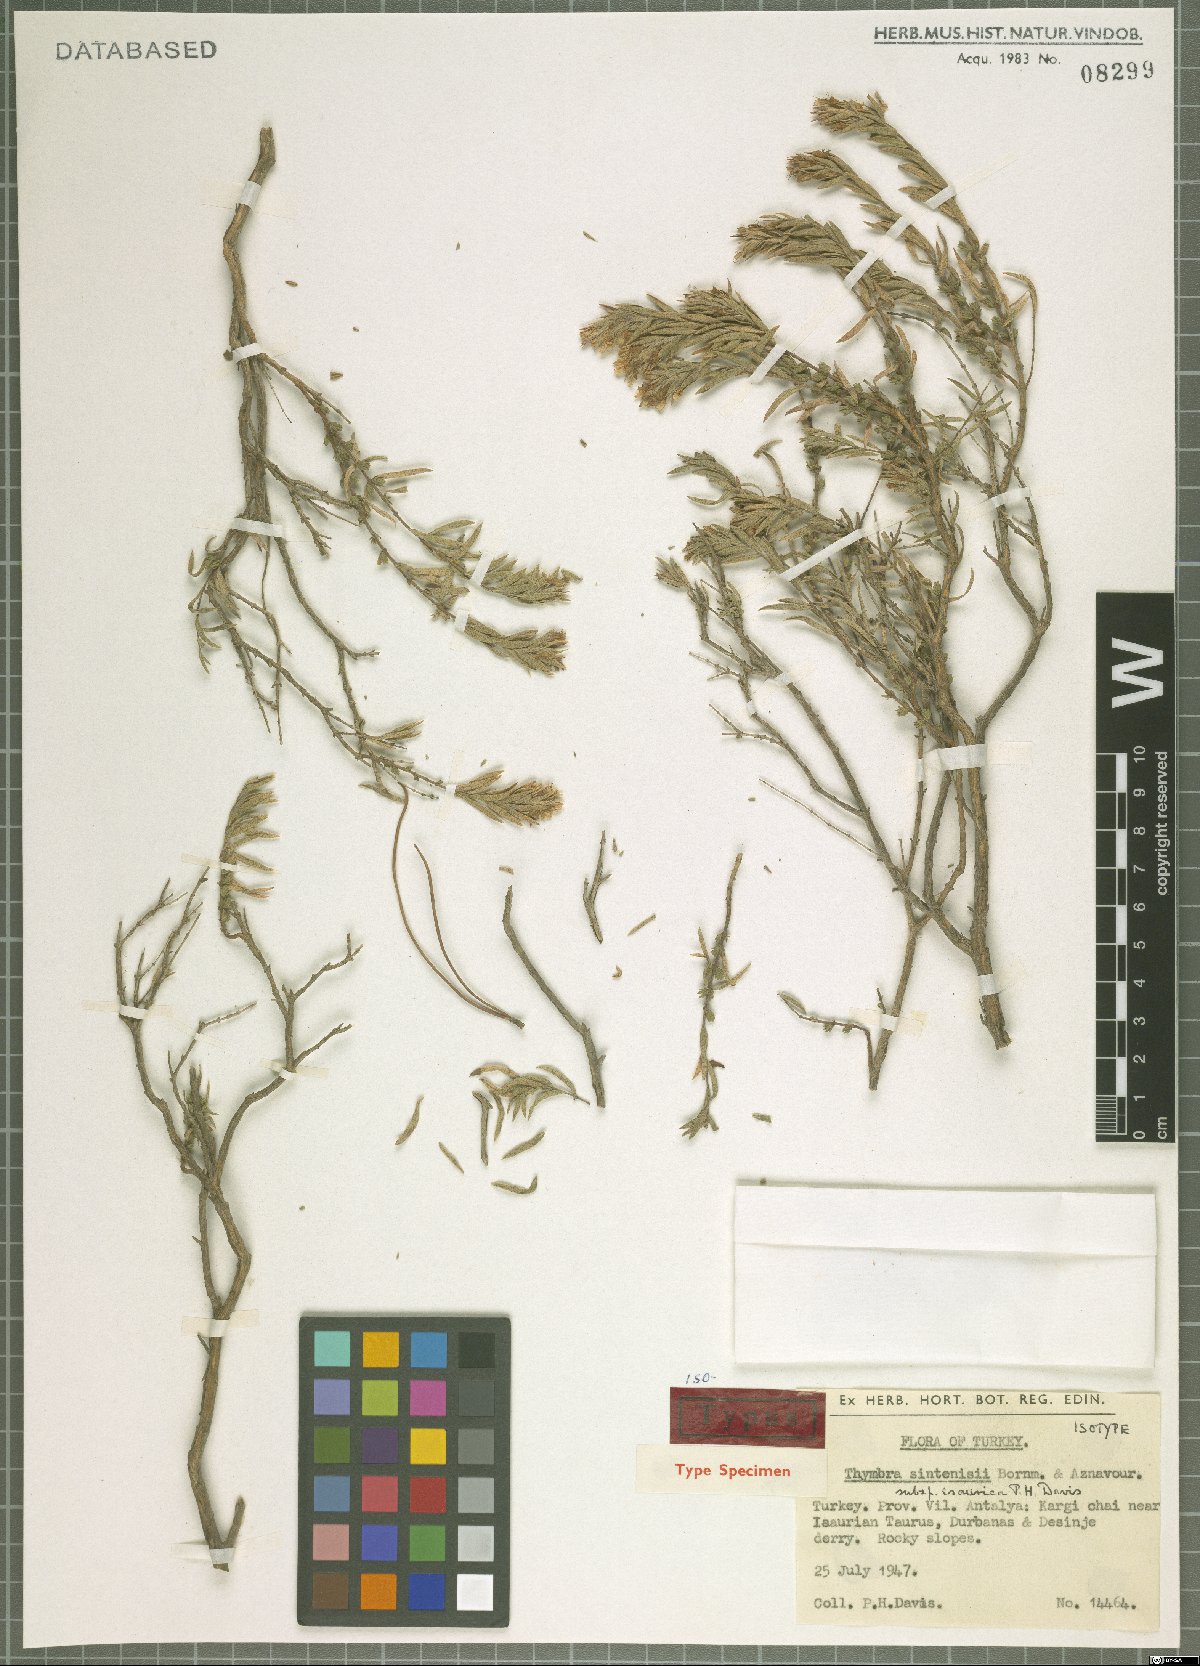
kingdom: Plantae
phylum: Tracheophyta
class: Magnoliopsida
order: Lamiales
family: Lamiaceae
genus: Thymbra
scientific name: Thymbra sintenisii
